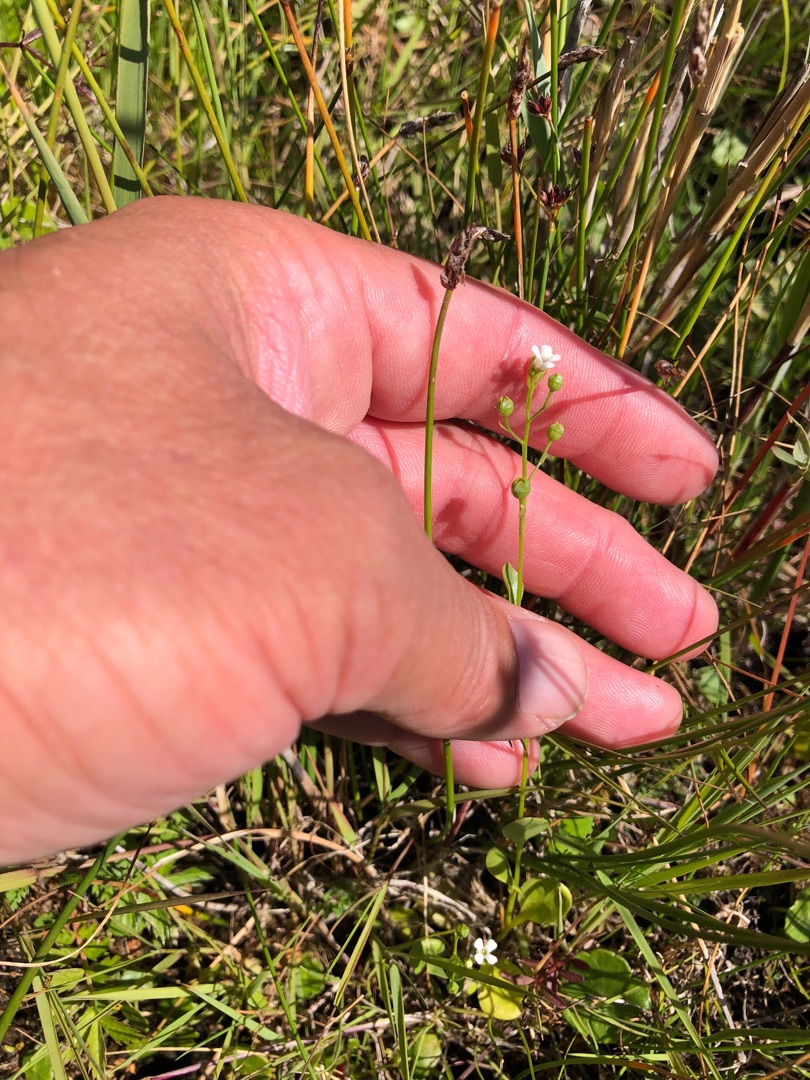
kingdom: Plantae
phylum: Tracheophyta
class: Magnoliopsida
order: Ericales
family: Primulaceae
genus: Samolus
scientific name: Samolus valerandi
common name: Samel
